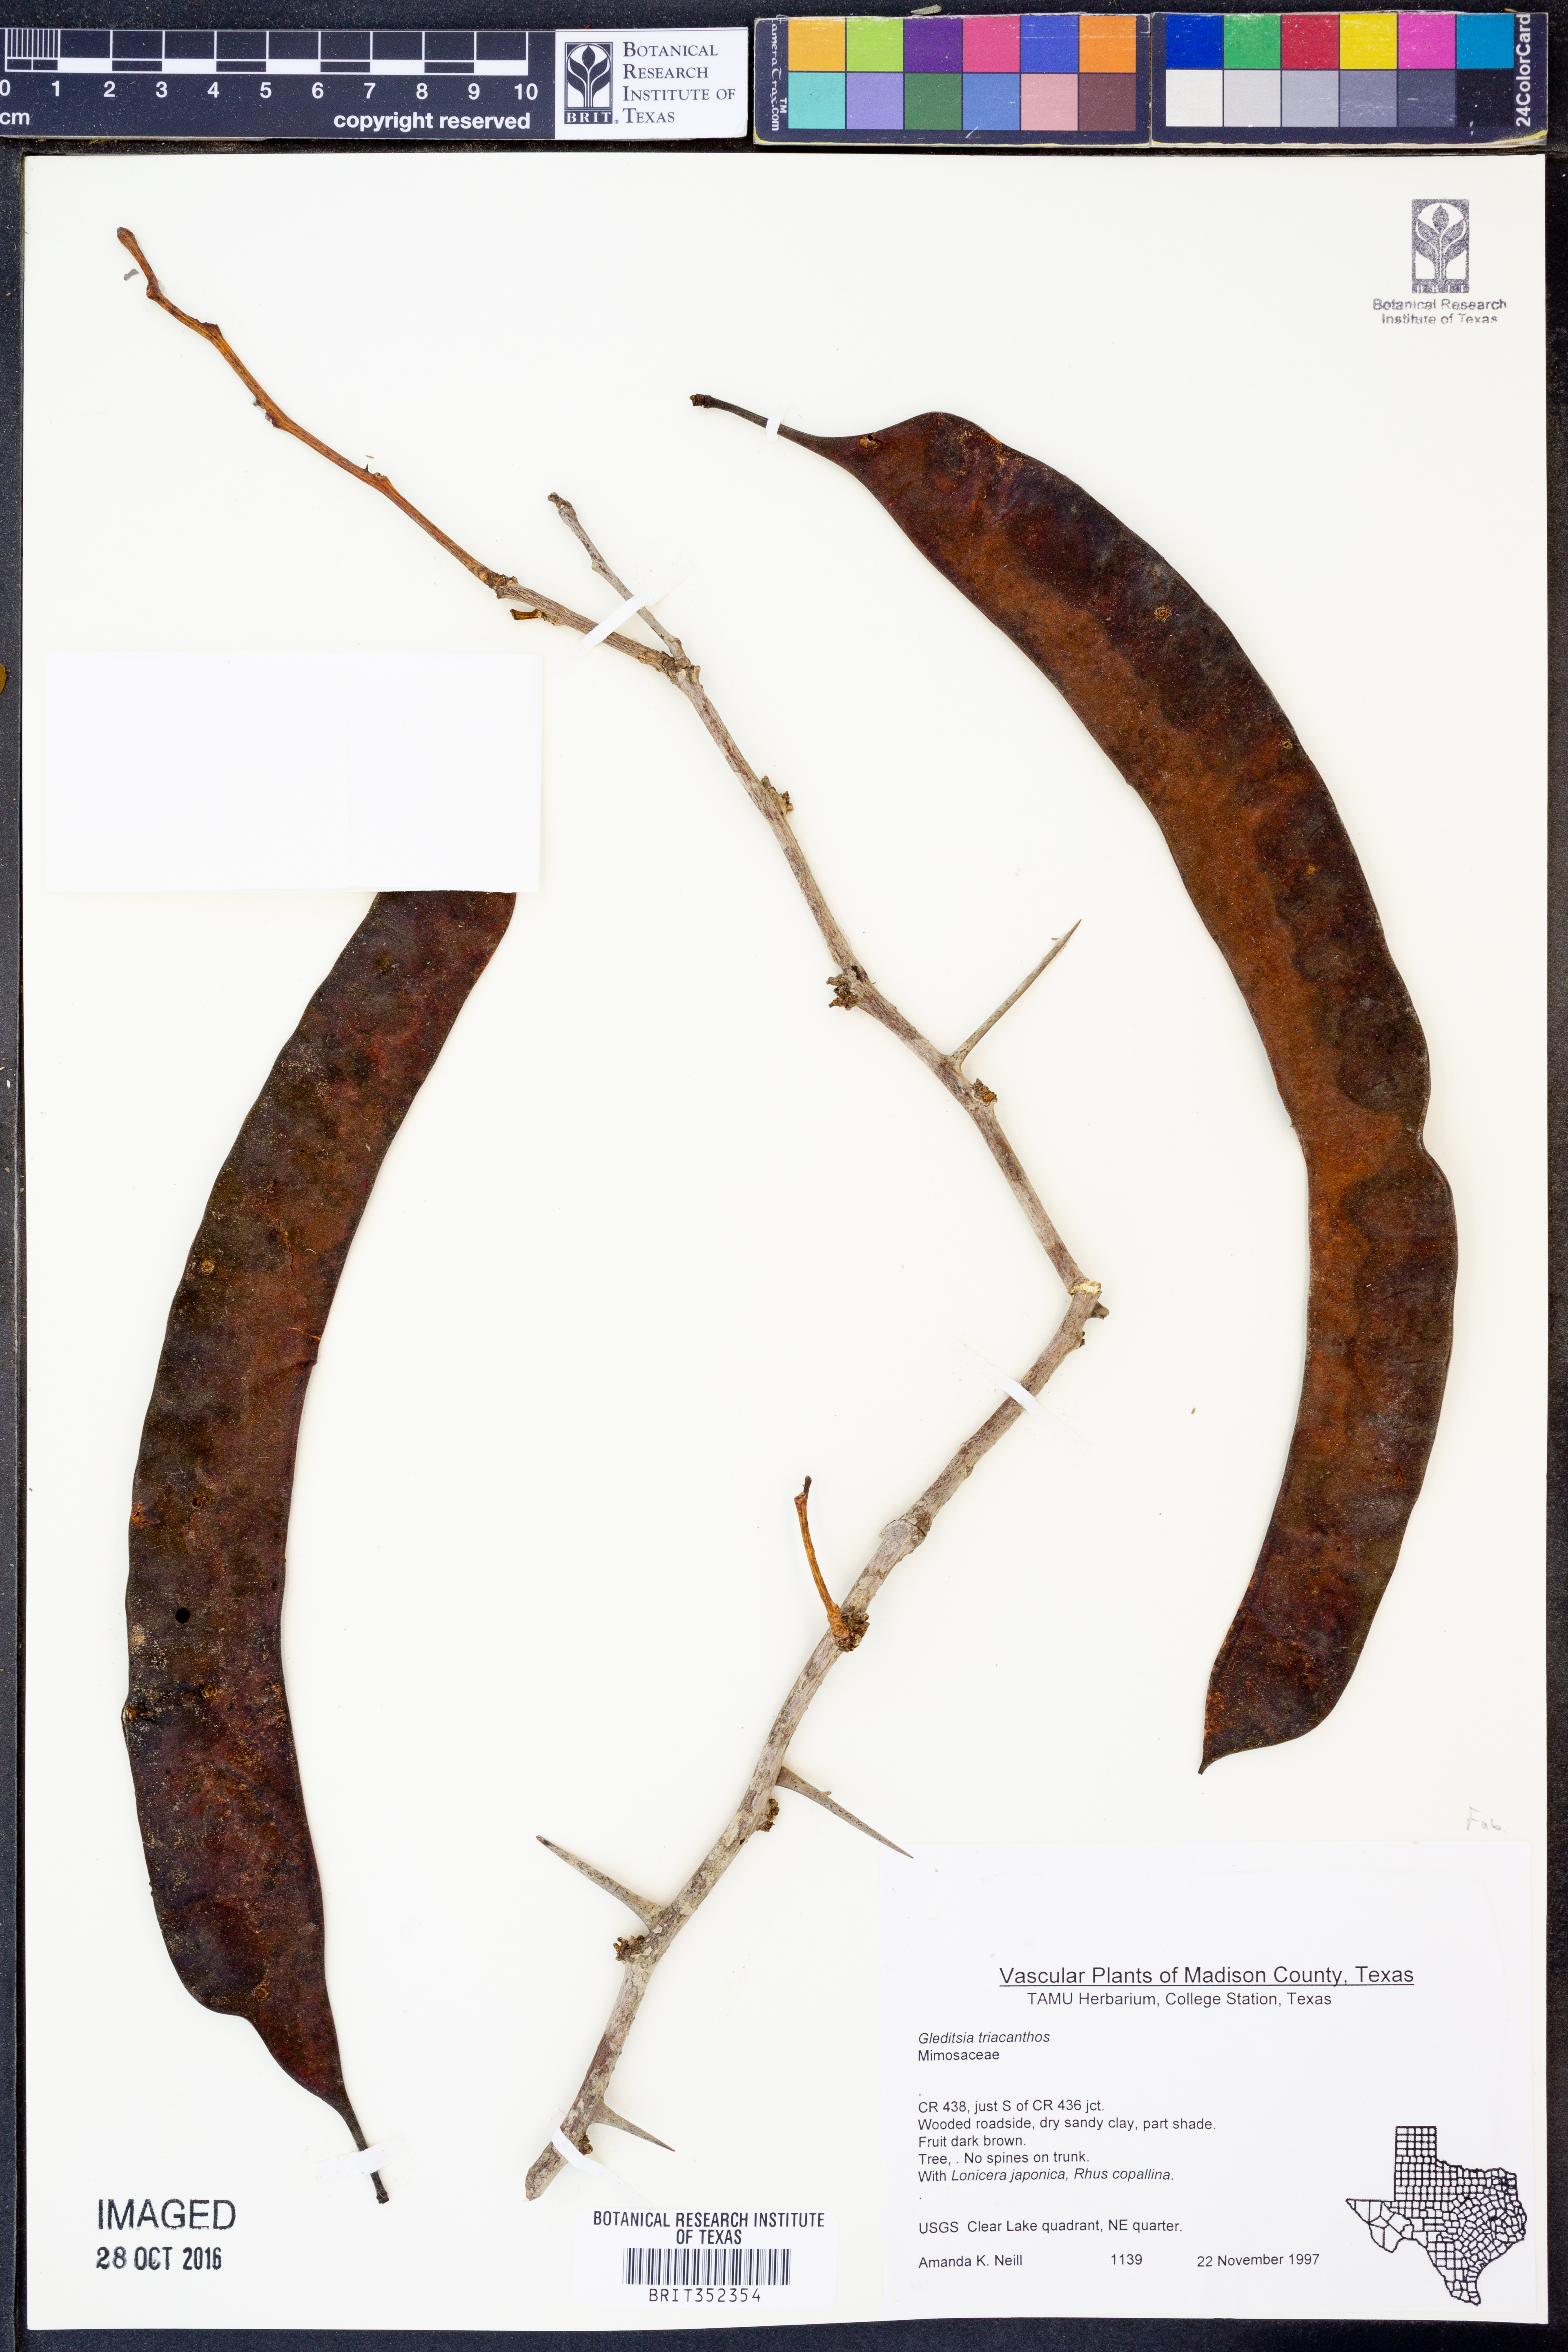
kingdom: Plantae
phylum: Tracheophyta
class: Magnoliopsida
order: Fabales
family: Fabaceae
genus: Gleditsia
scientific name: Gleditsia triacanthos
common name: Common honeylocust
